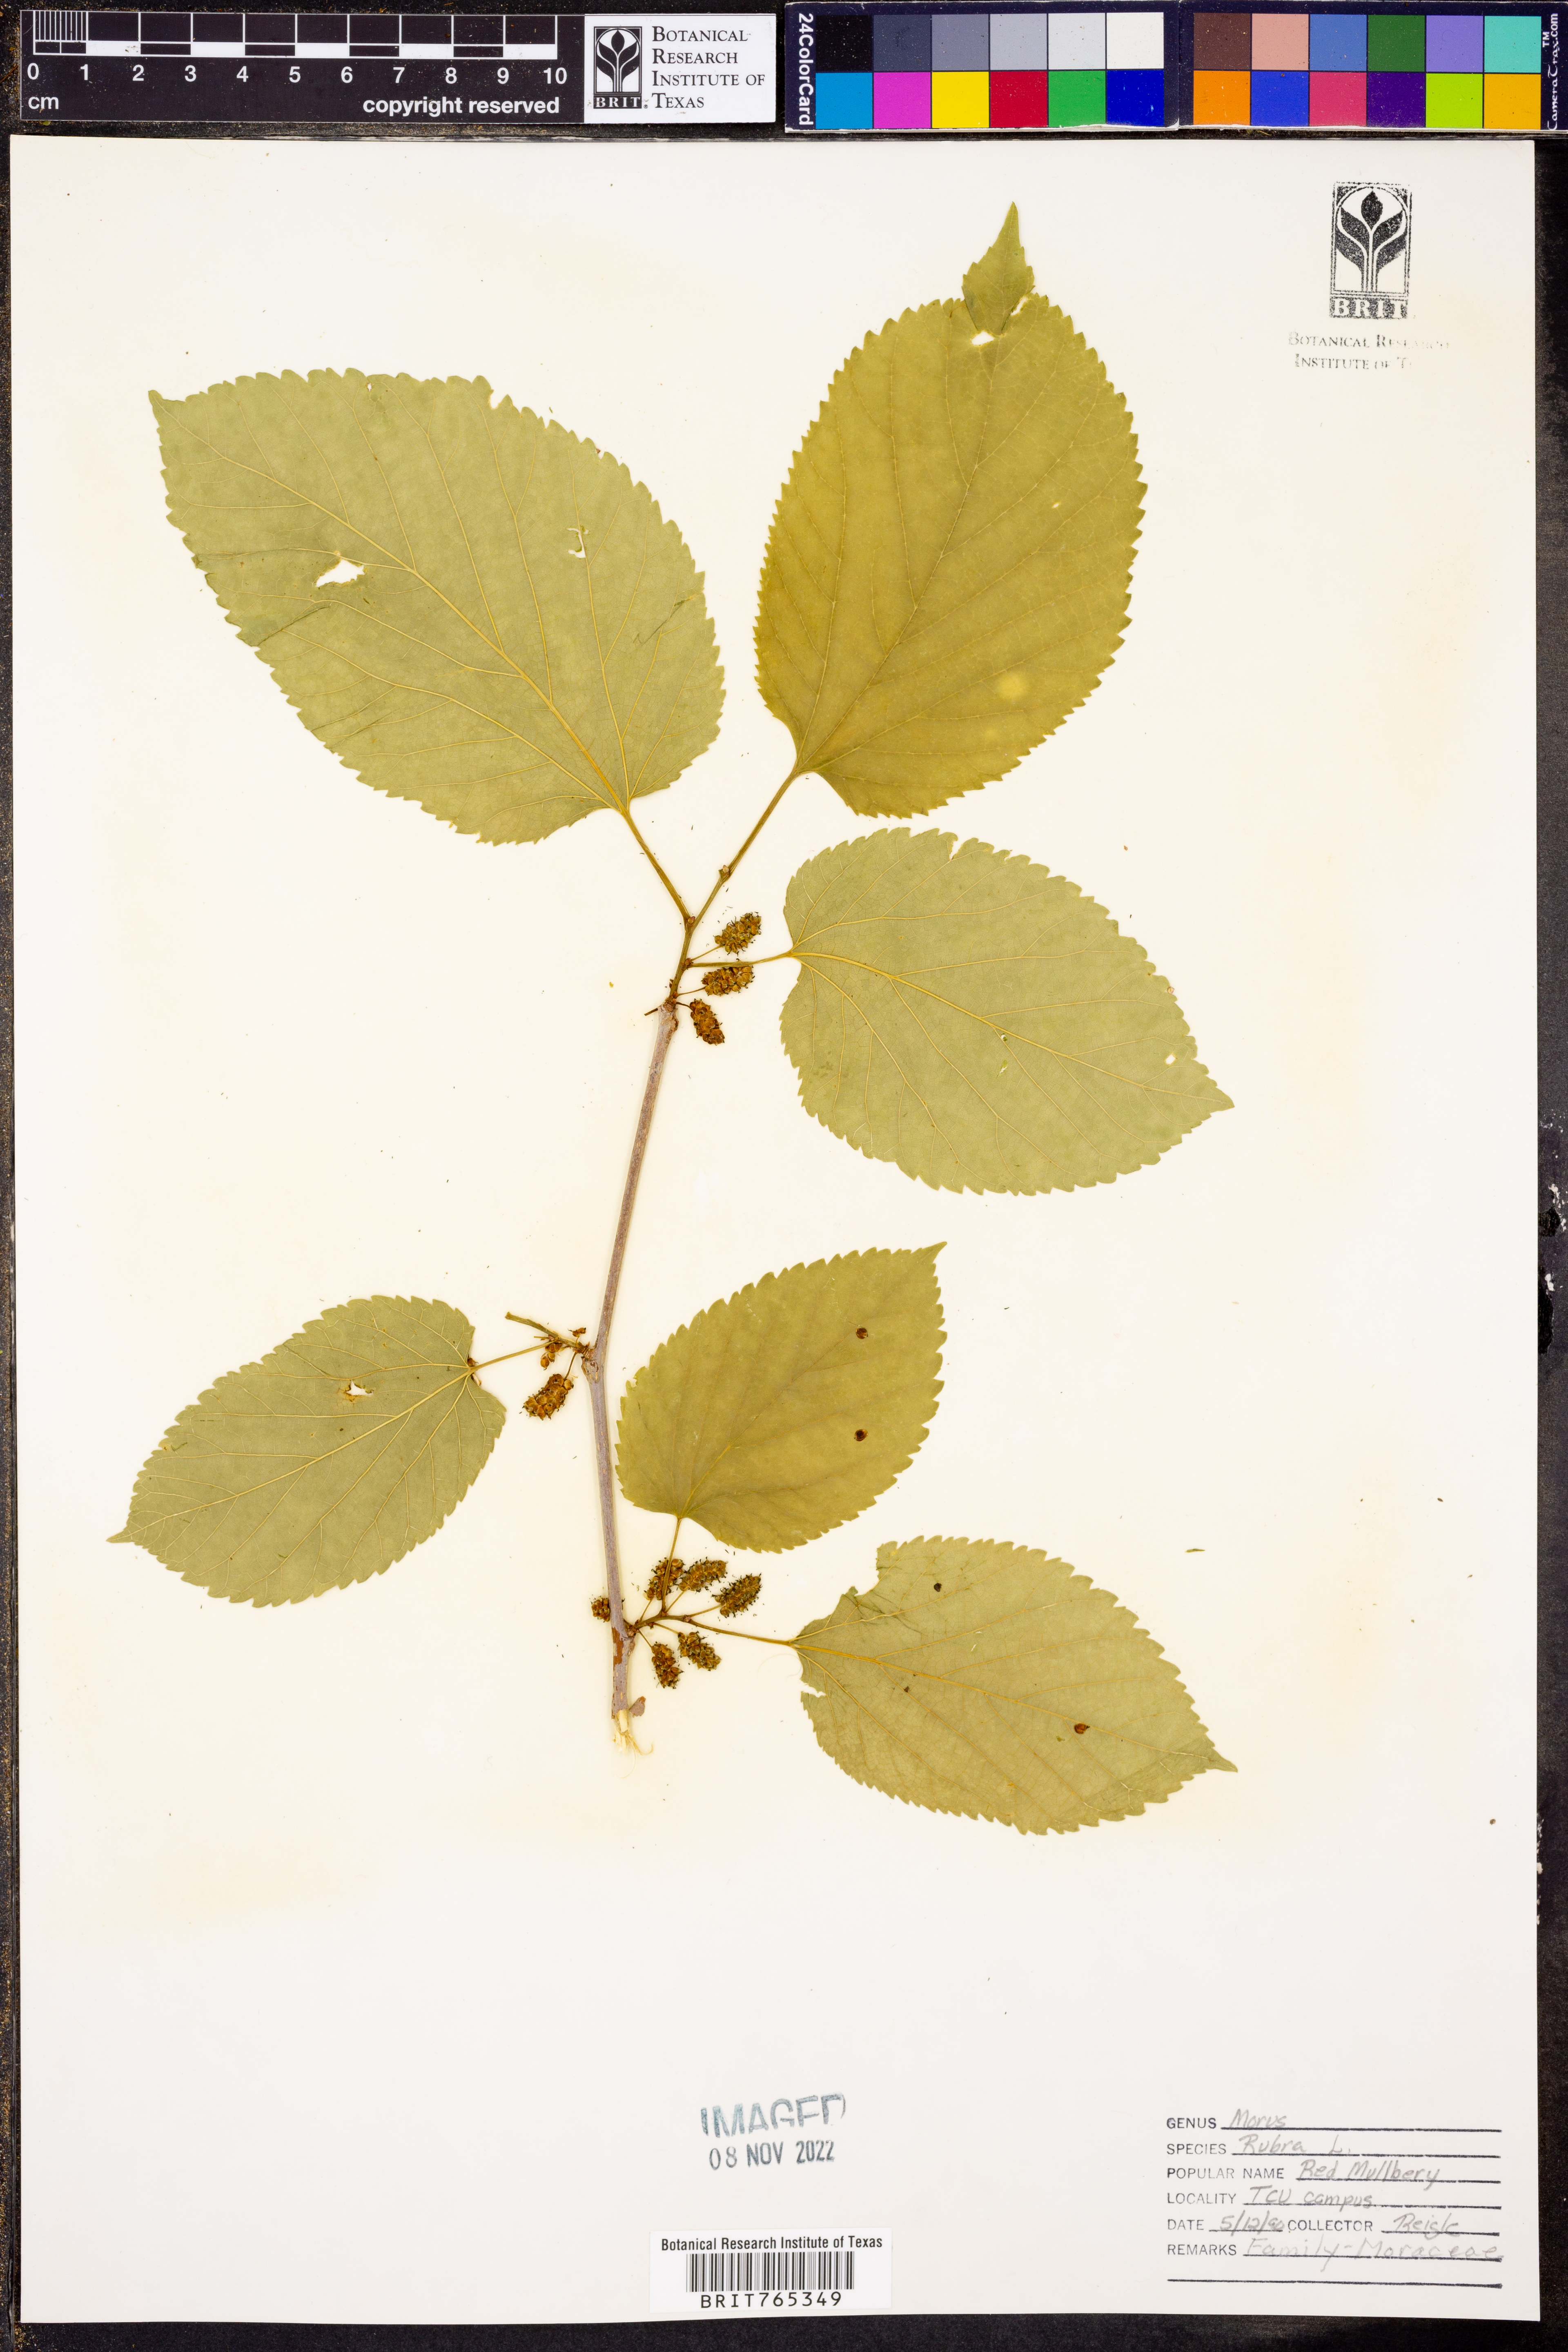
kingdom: Plantae
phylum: Tracheophyta
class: Magnoliopsida
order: Rosales
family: Moraceae
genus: Morus
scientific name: Morus rubra
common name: Red mulberry
